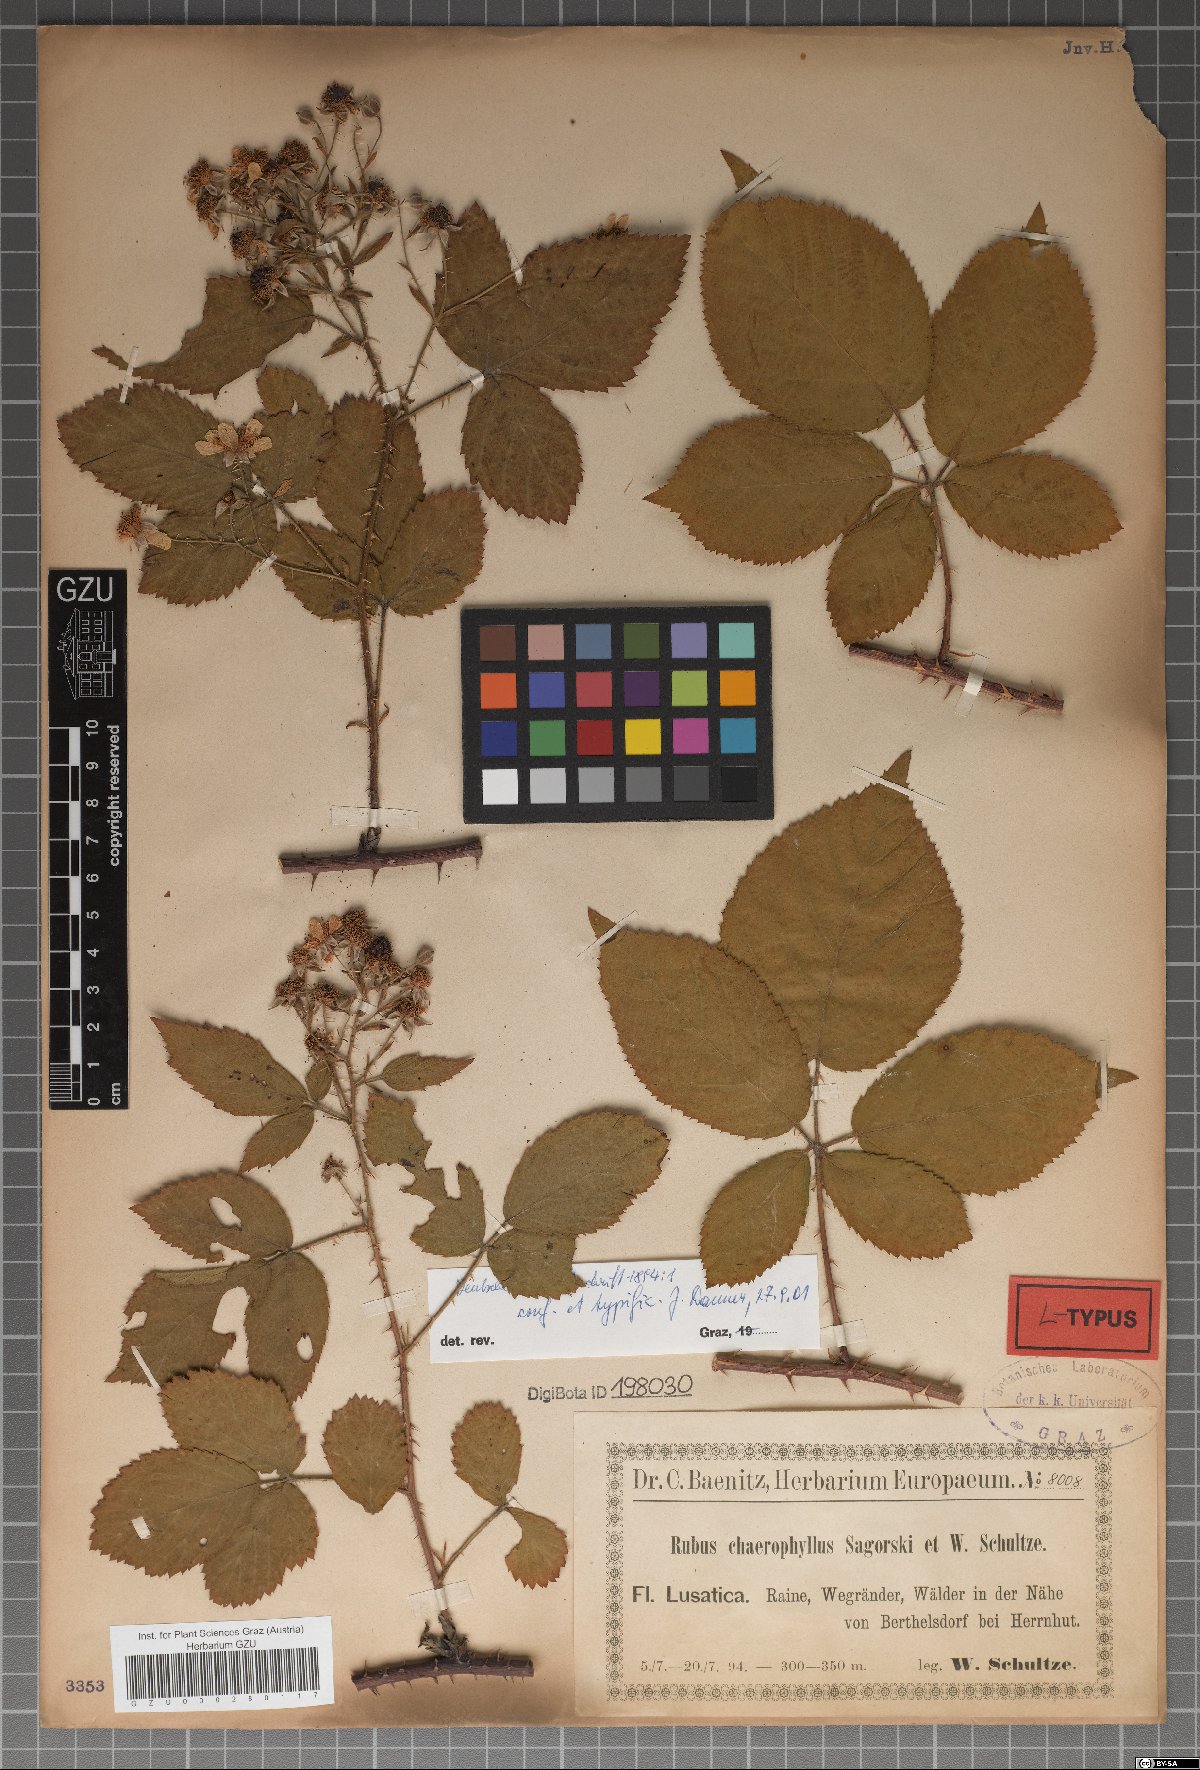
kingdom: Plantae
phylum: Tracheophyta
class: Magnoliopsida
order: Rosales
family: Rosaceae
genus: Rubus
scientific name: Rubus chaerophyllus
